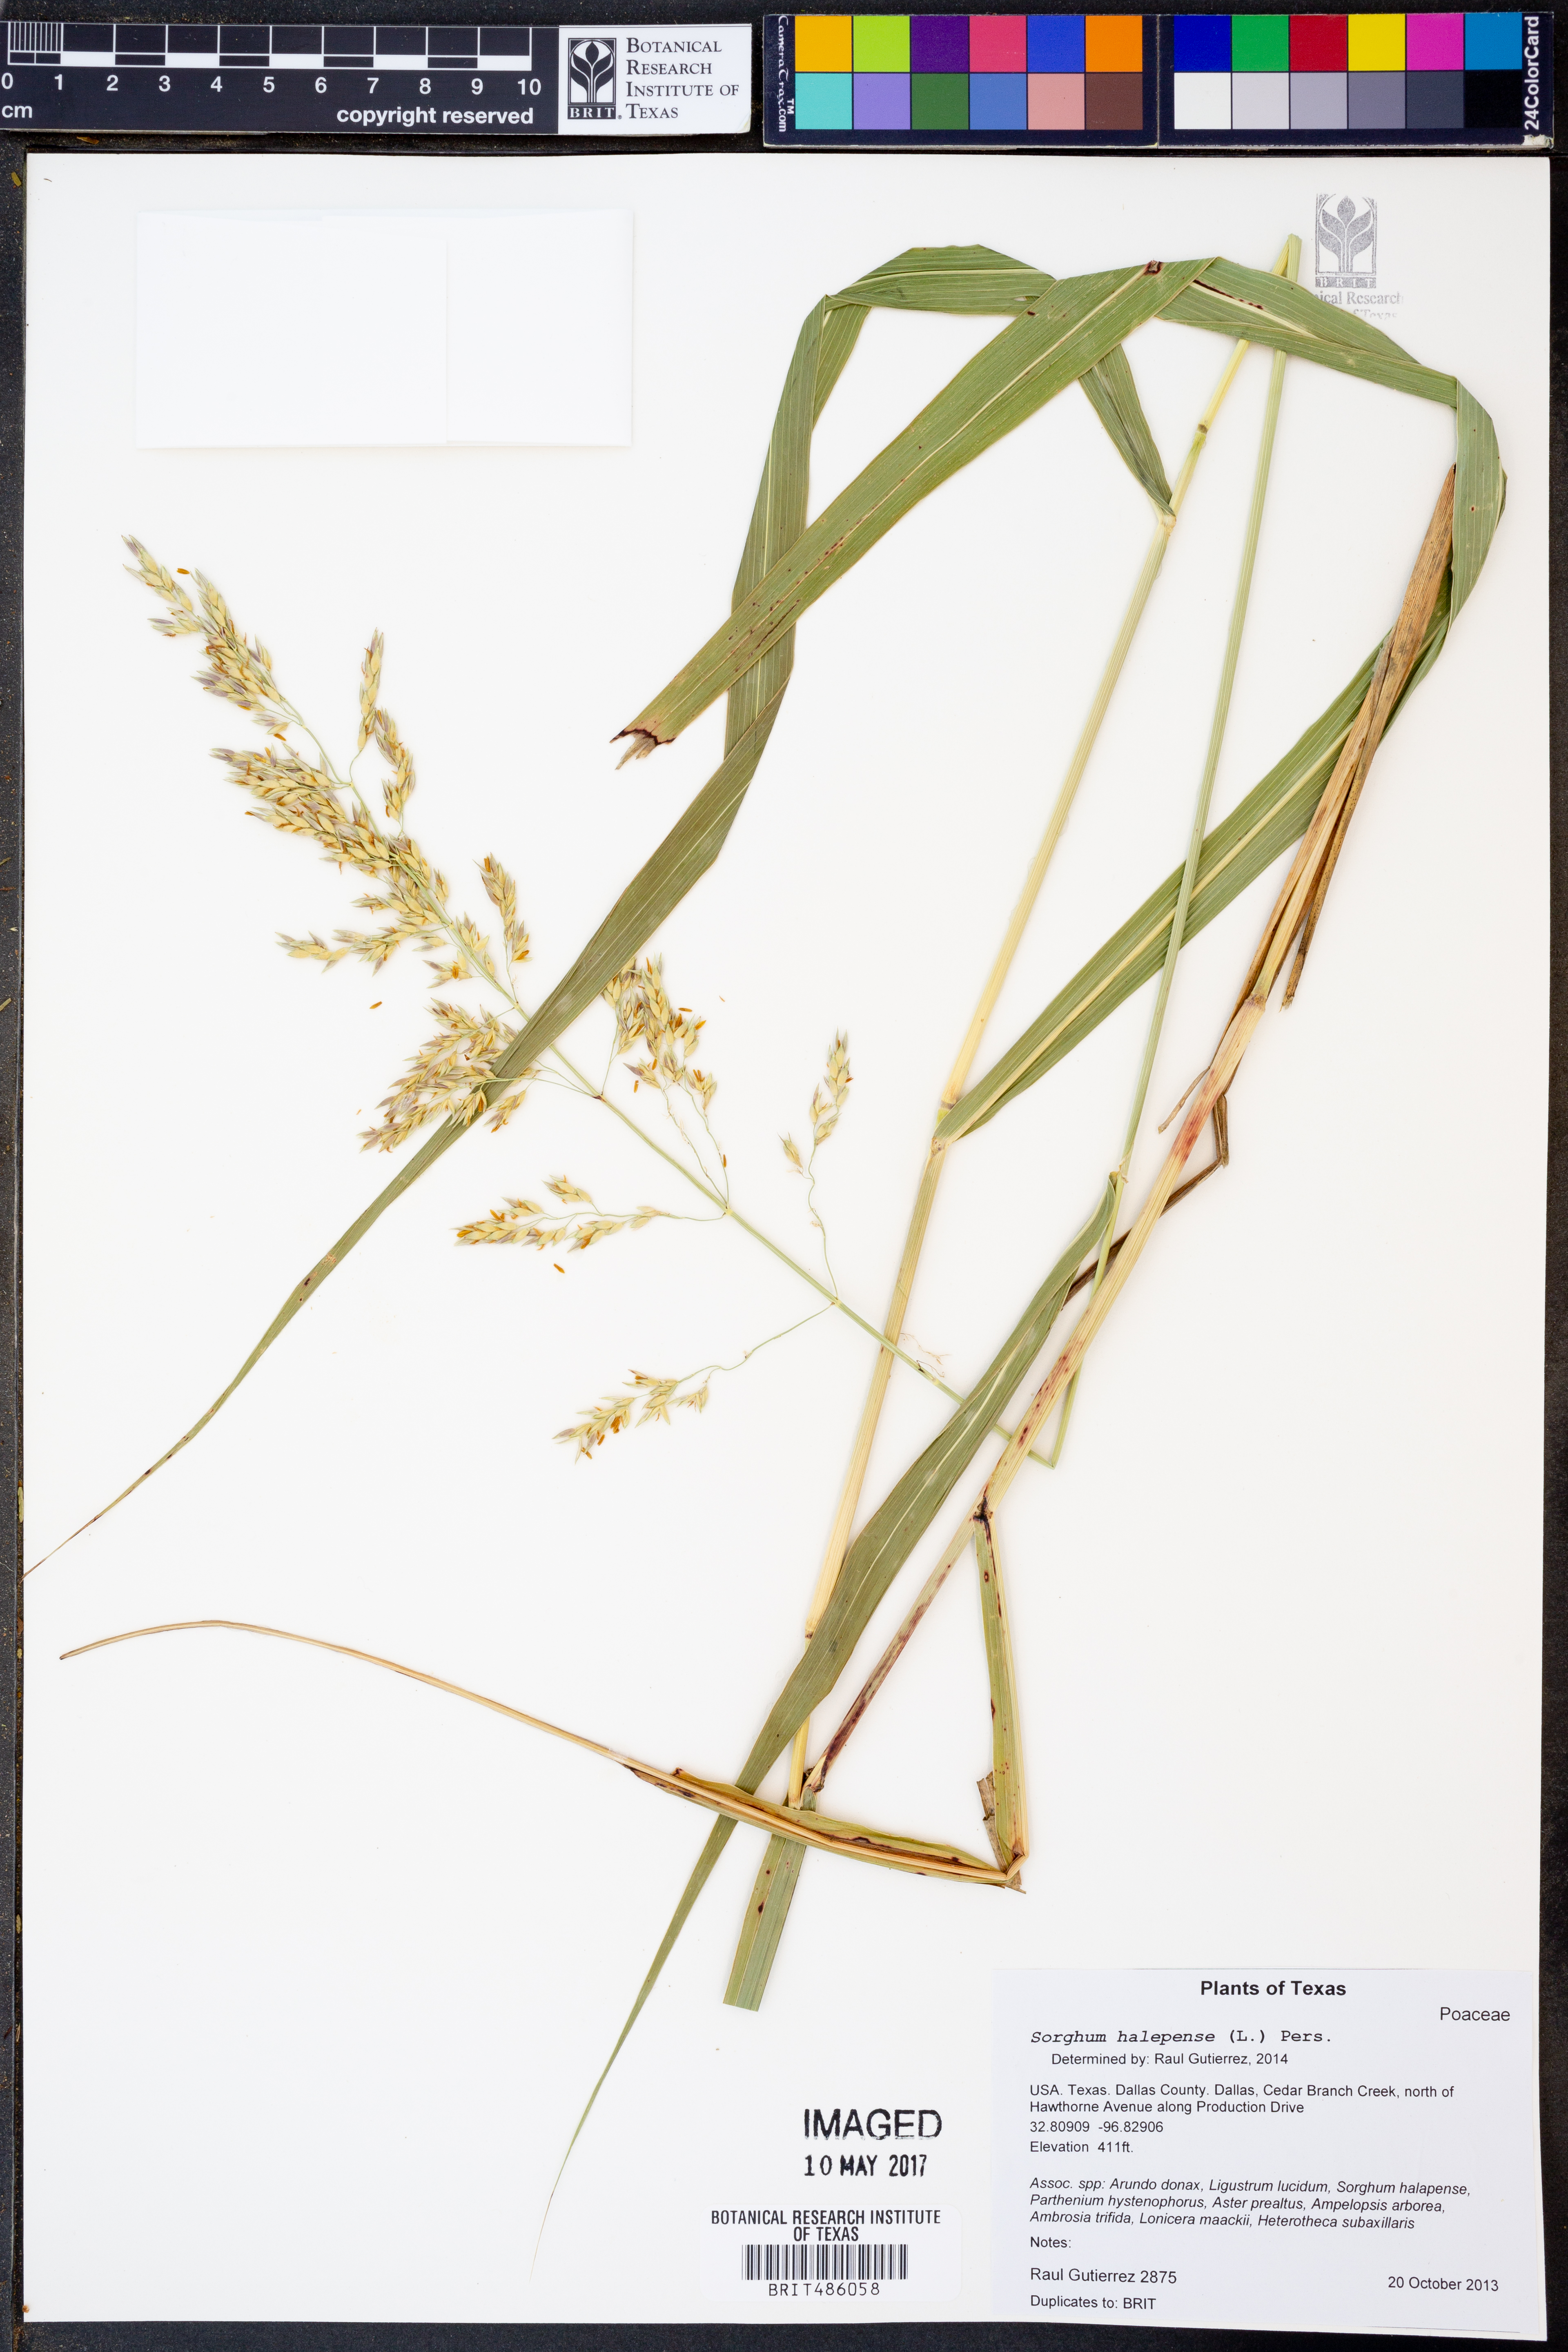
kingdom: Plantae
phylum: Tracheophyta
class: Liliopsida
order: Poales
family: Poaceae
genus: Sorghum
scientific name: Sorghum halepense
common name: Johnson-grass
